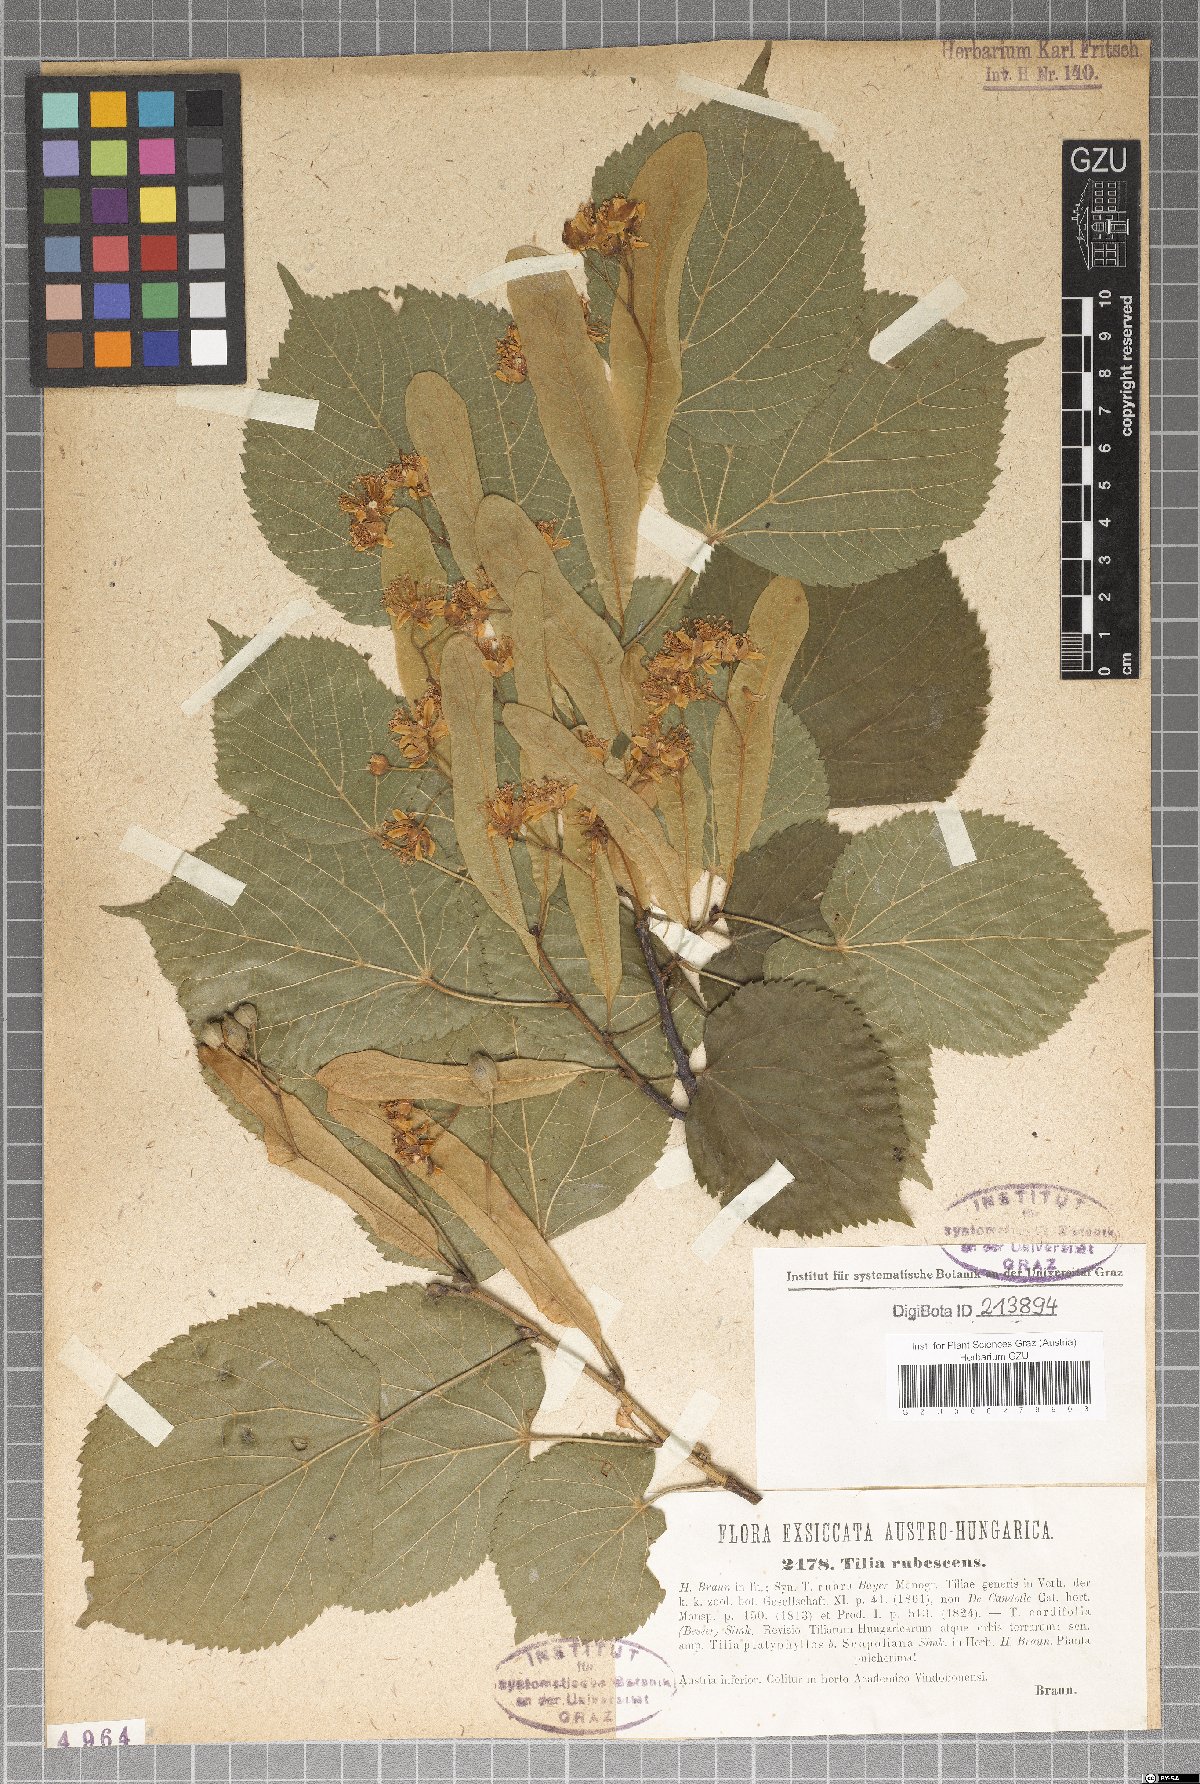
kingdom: Plantae
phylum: Tracheophyta
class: Magnoliopsida
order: Malvales
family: Malvaceae
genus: Tilia
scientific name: Tilia rubescens
